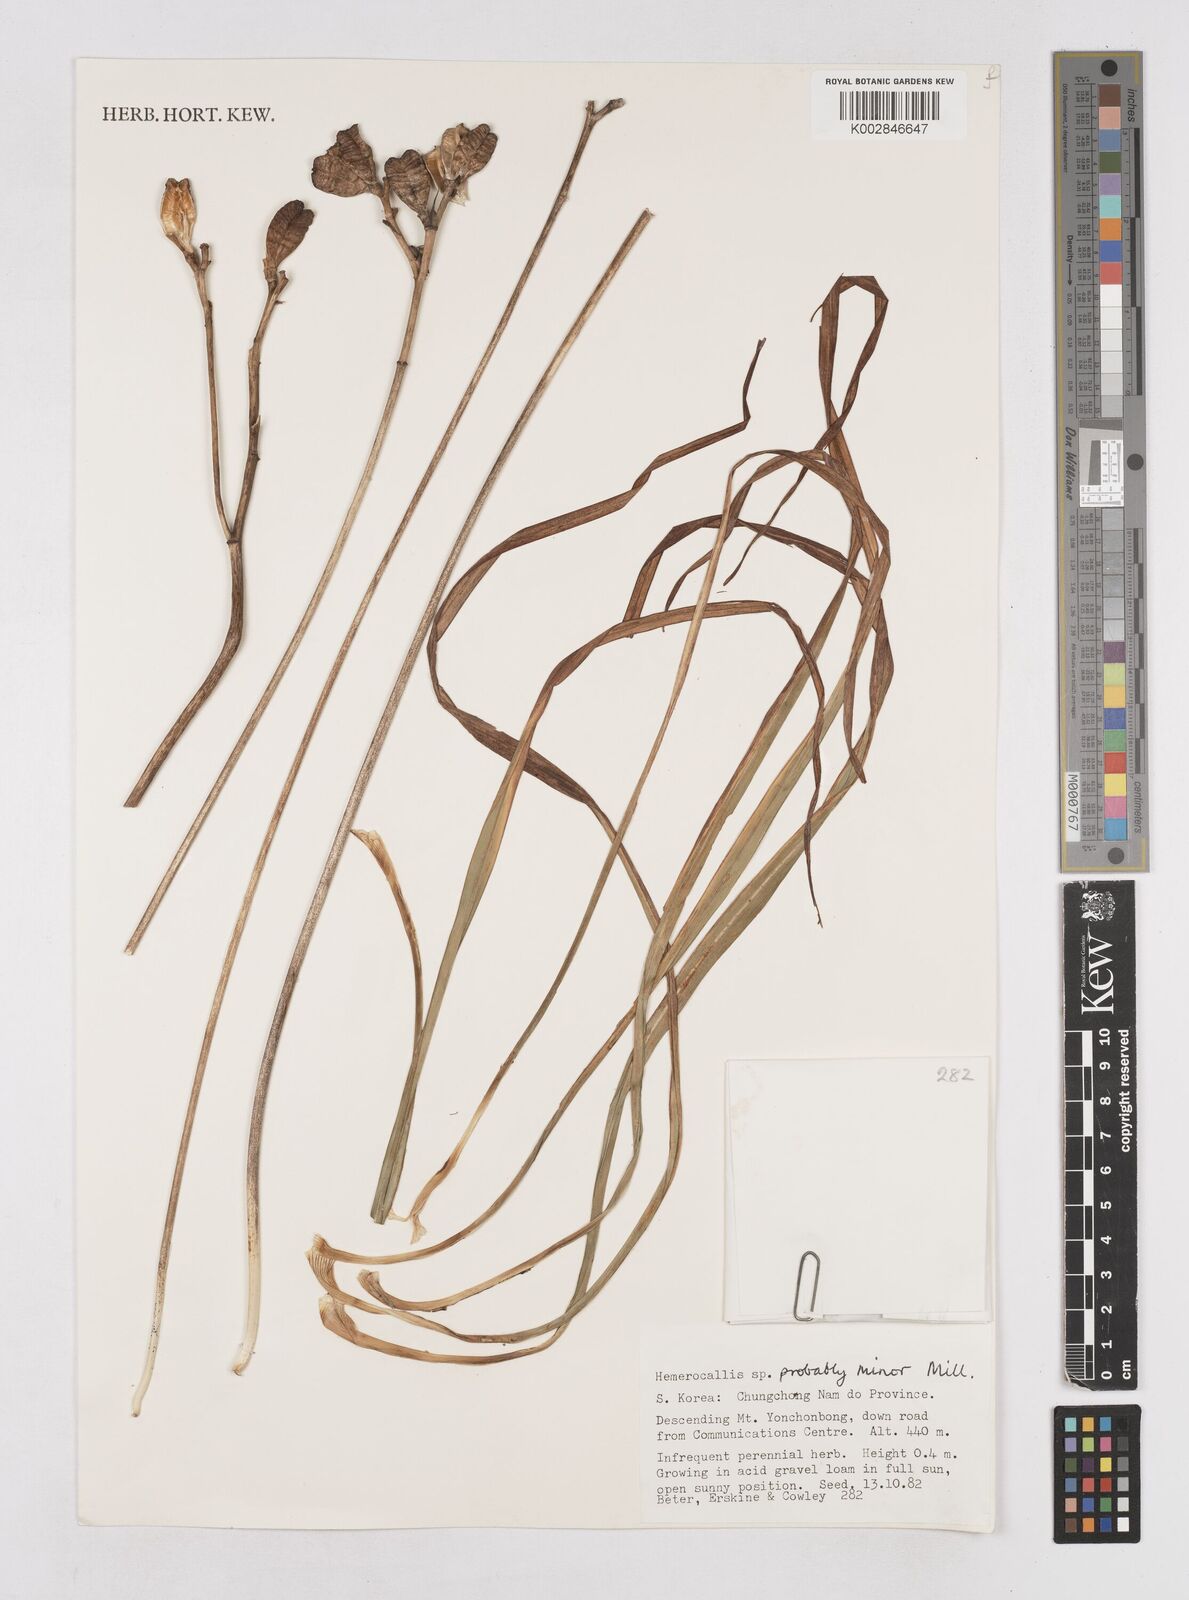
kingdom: Plantae
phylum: Tracheophyta
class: Liliopsida
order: Asparagales
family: Asphodelaceae
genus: Hemerocallis
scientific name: Hemerocallis minor
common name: Small daylily
